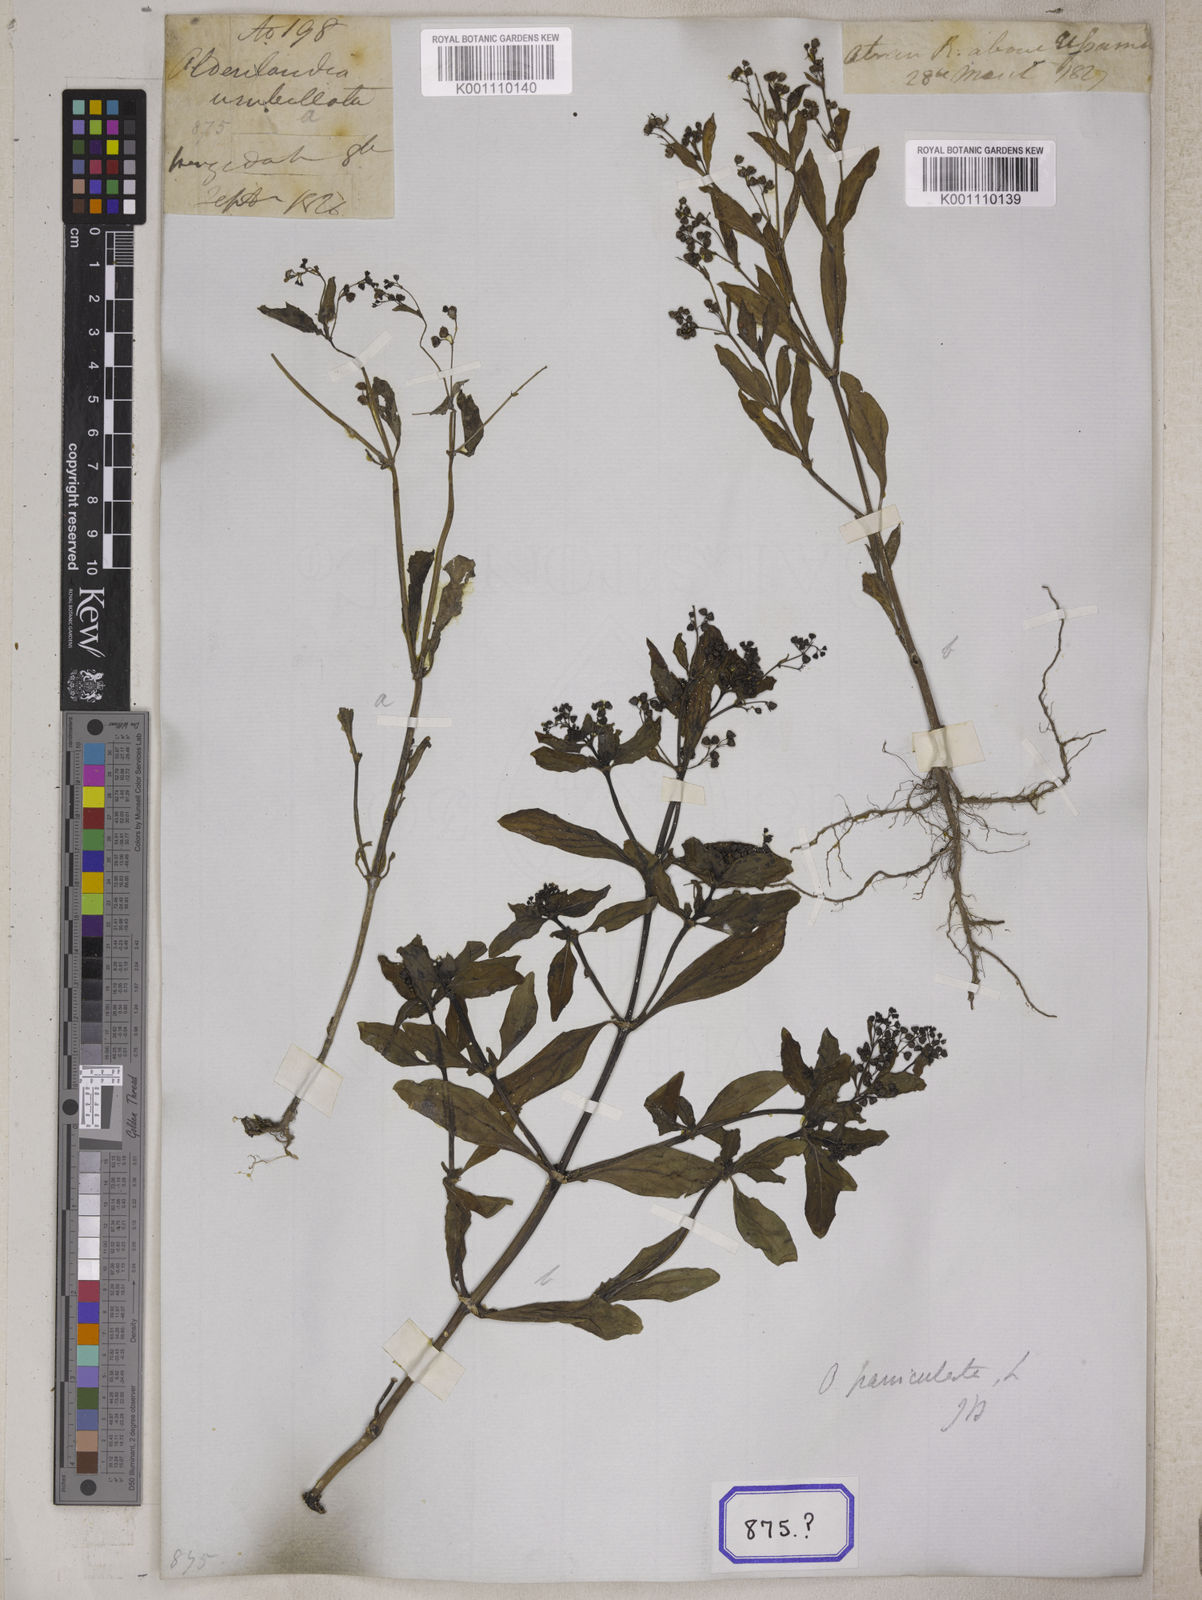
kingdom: Plantae
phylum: Tracheophyta
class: Magnoliopsida
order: Gentianales
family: Rubiaceae
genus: Leptopetalum
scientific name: Leptopetalum racemosum
